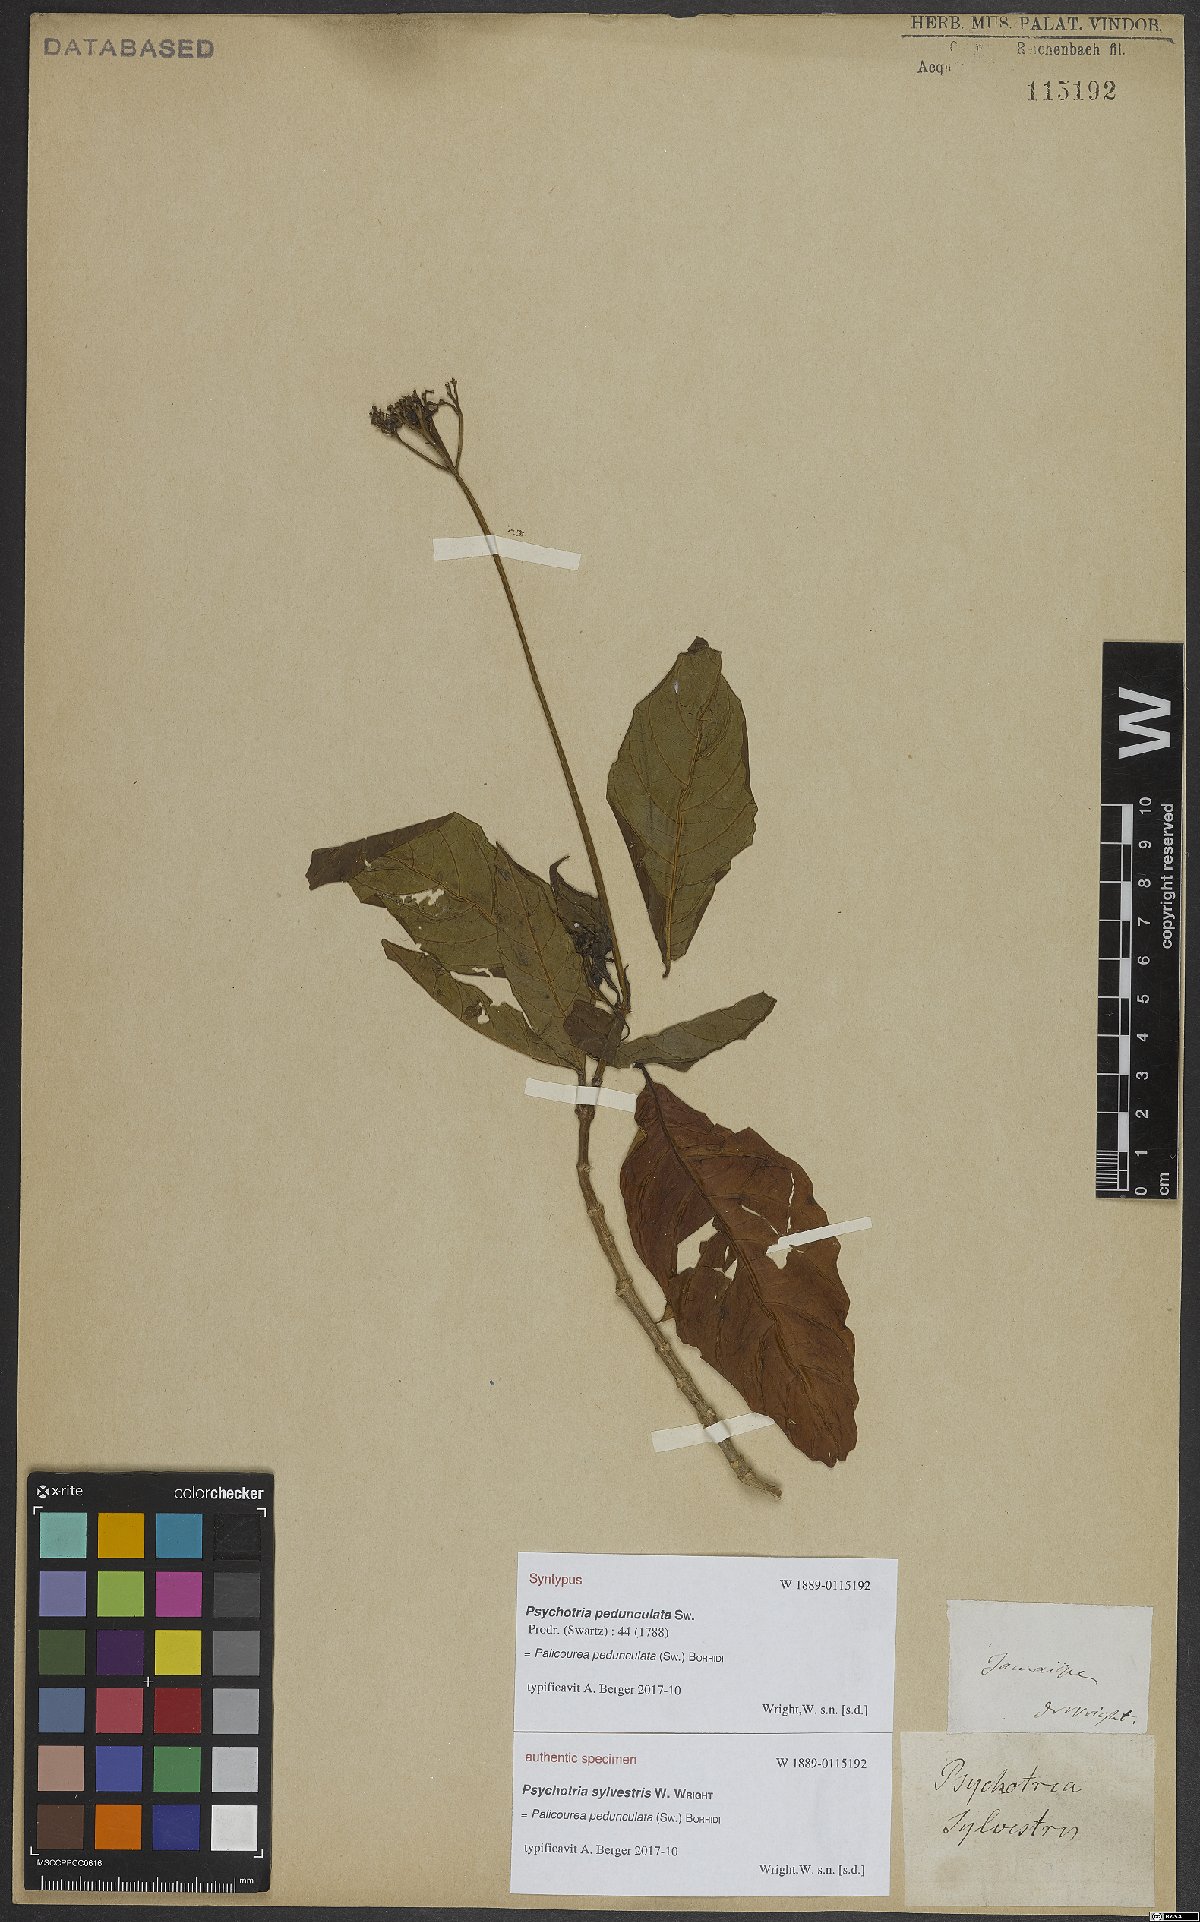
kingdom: Plantae
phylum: Tracheophyta
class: Magnoliopsida
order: Gentianales
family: Rubiaceae
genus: Palicourea
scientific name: Palicourea pedunculata
